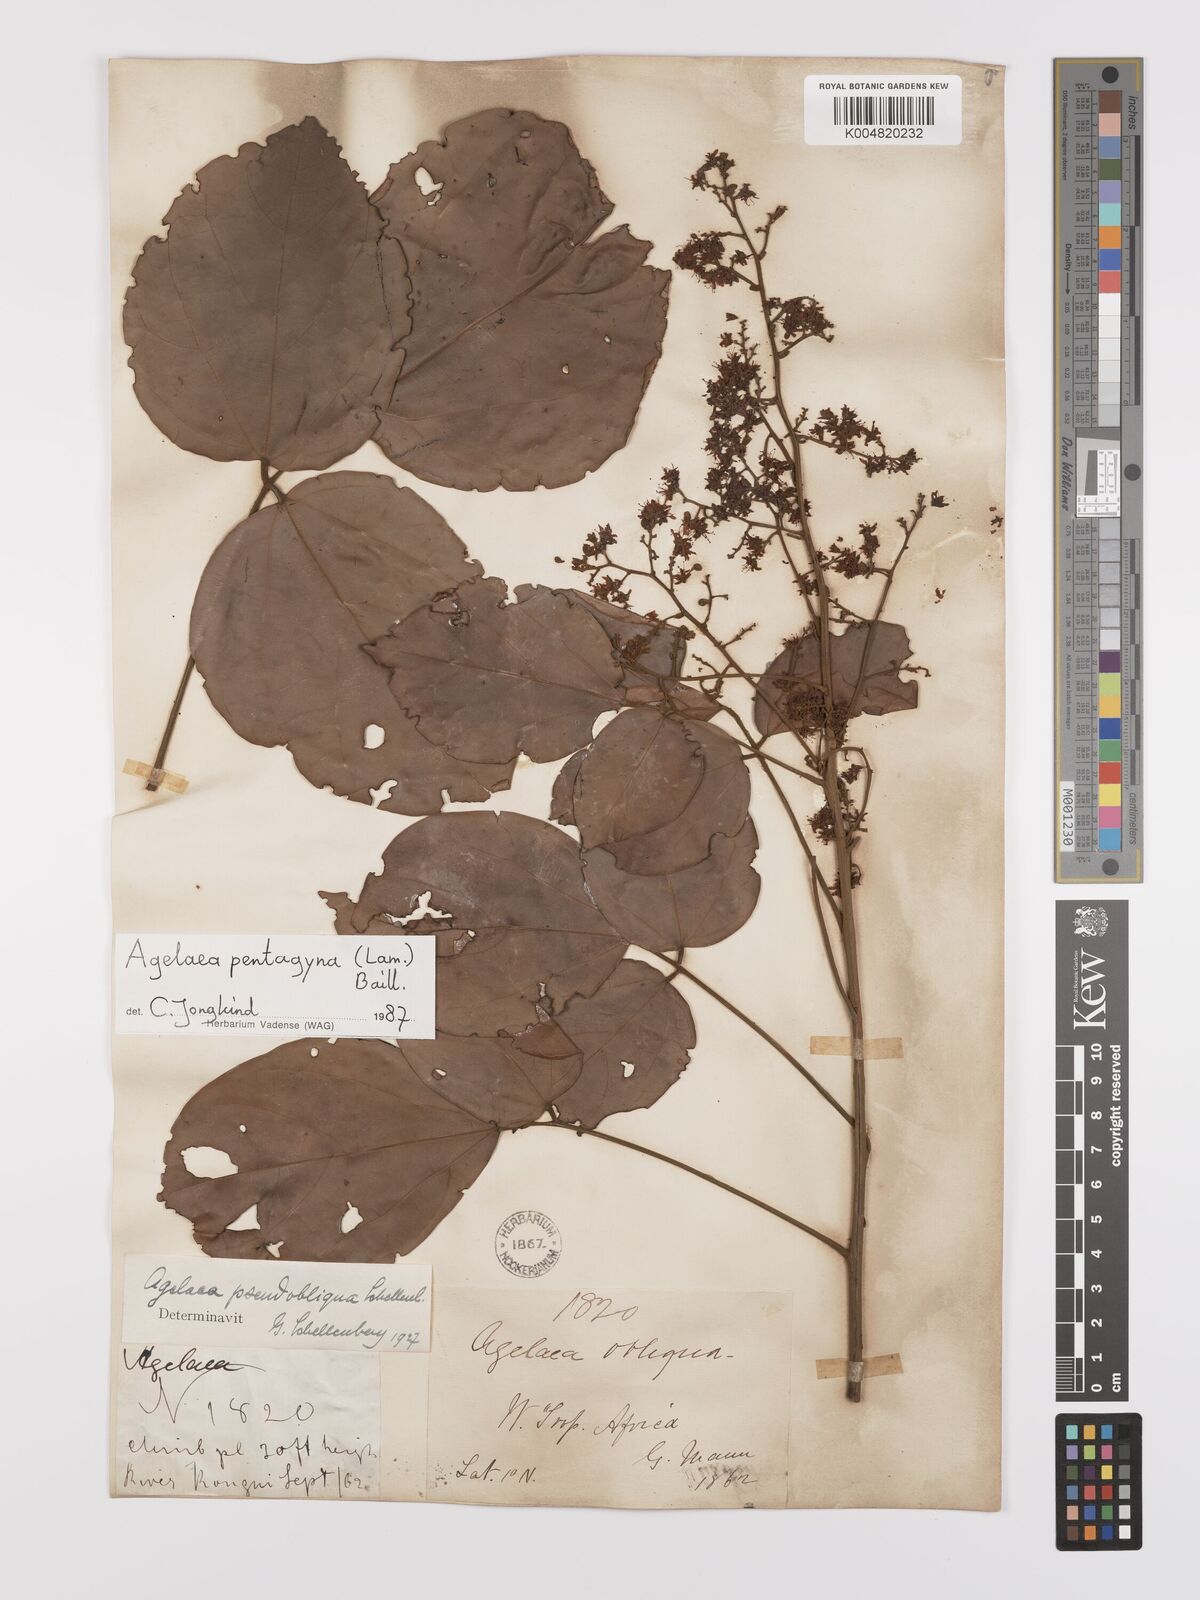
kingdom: Plantae
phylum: Tracheophyta
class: Magnoliopsida
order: Oxalidales
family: Connaraceae
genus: Agelaea
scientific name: Agelaea pentagyna
